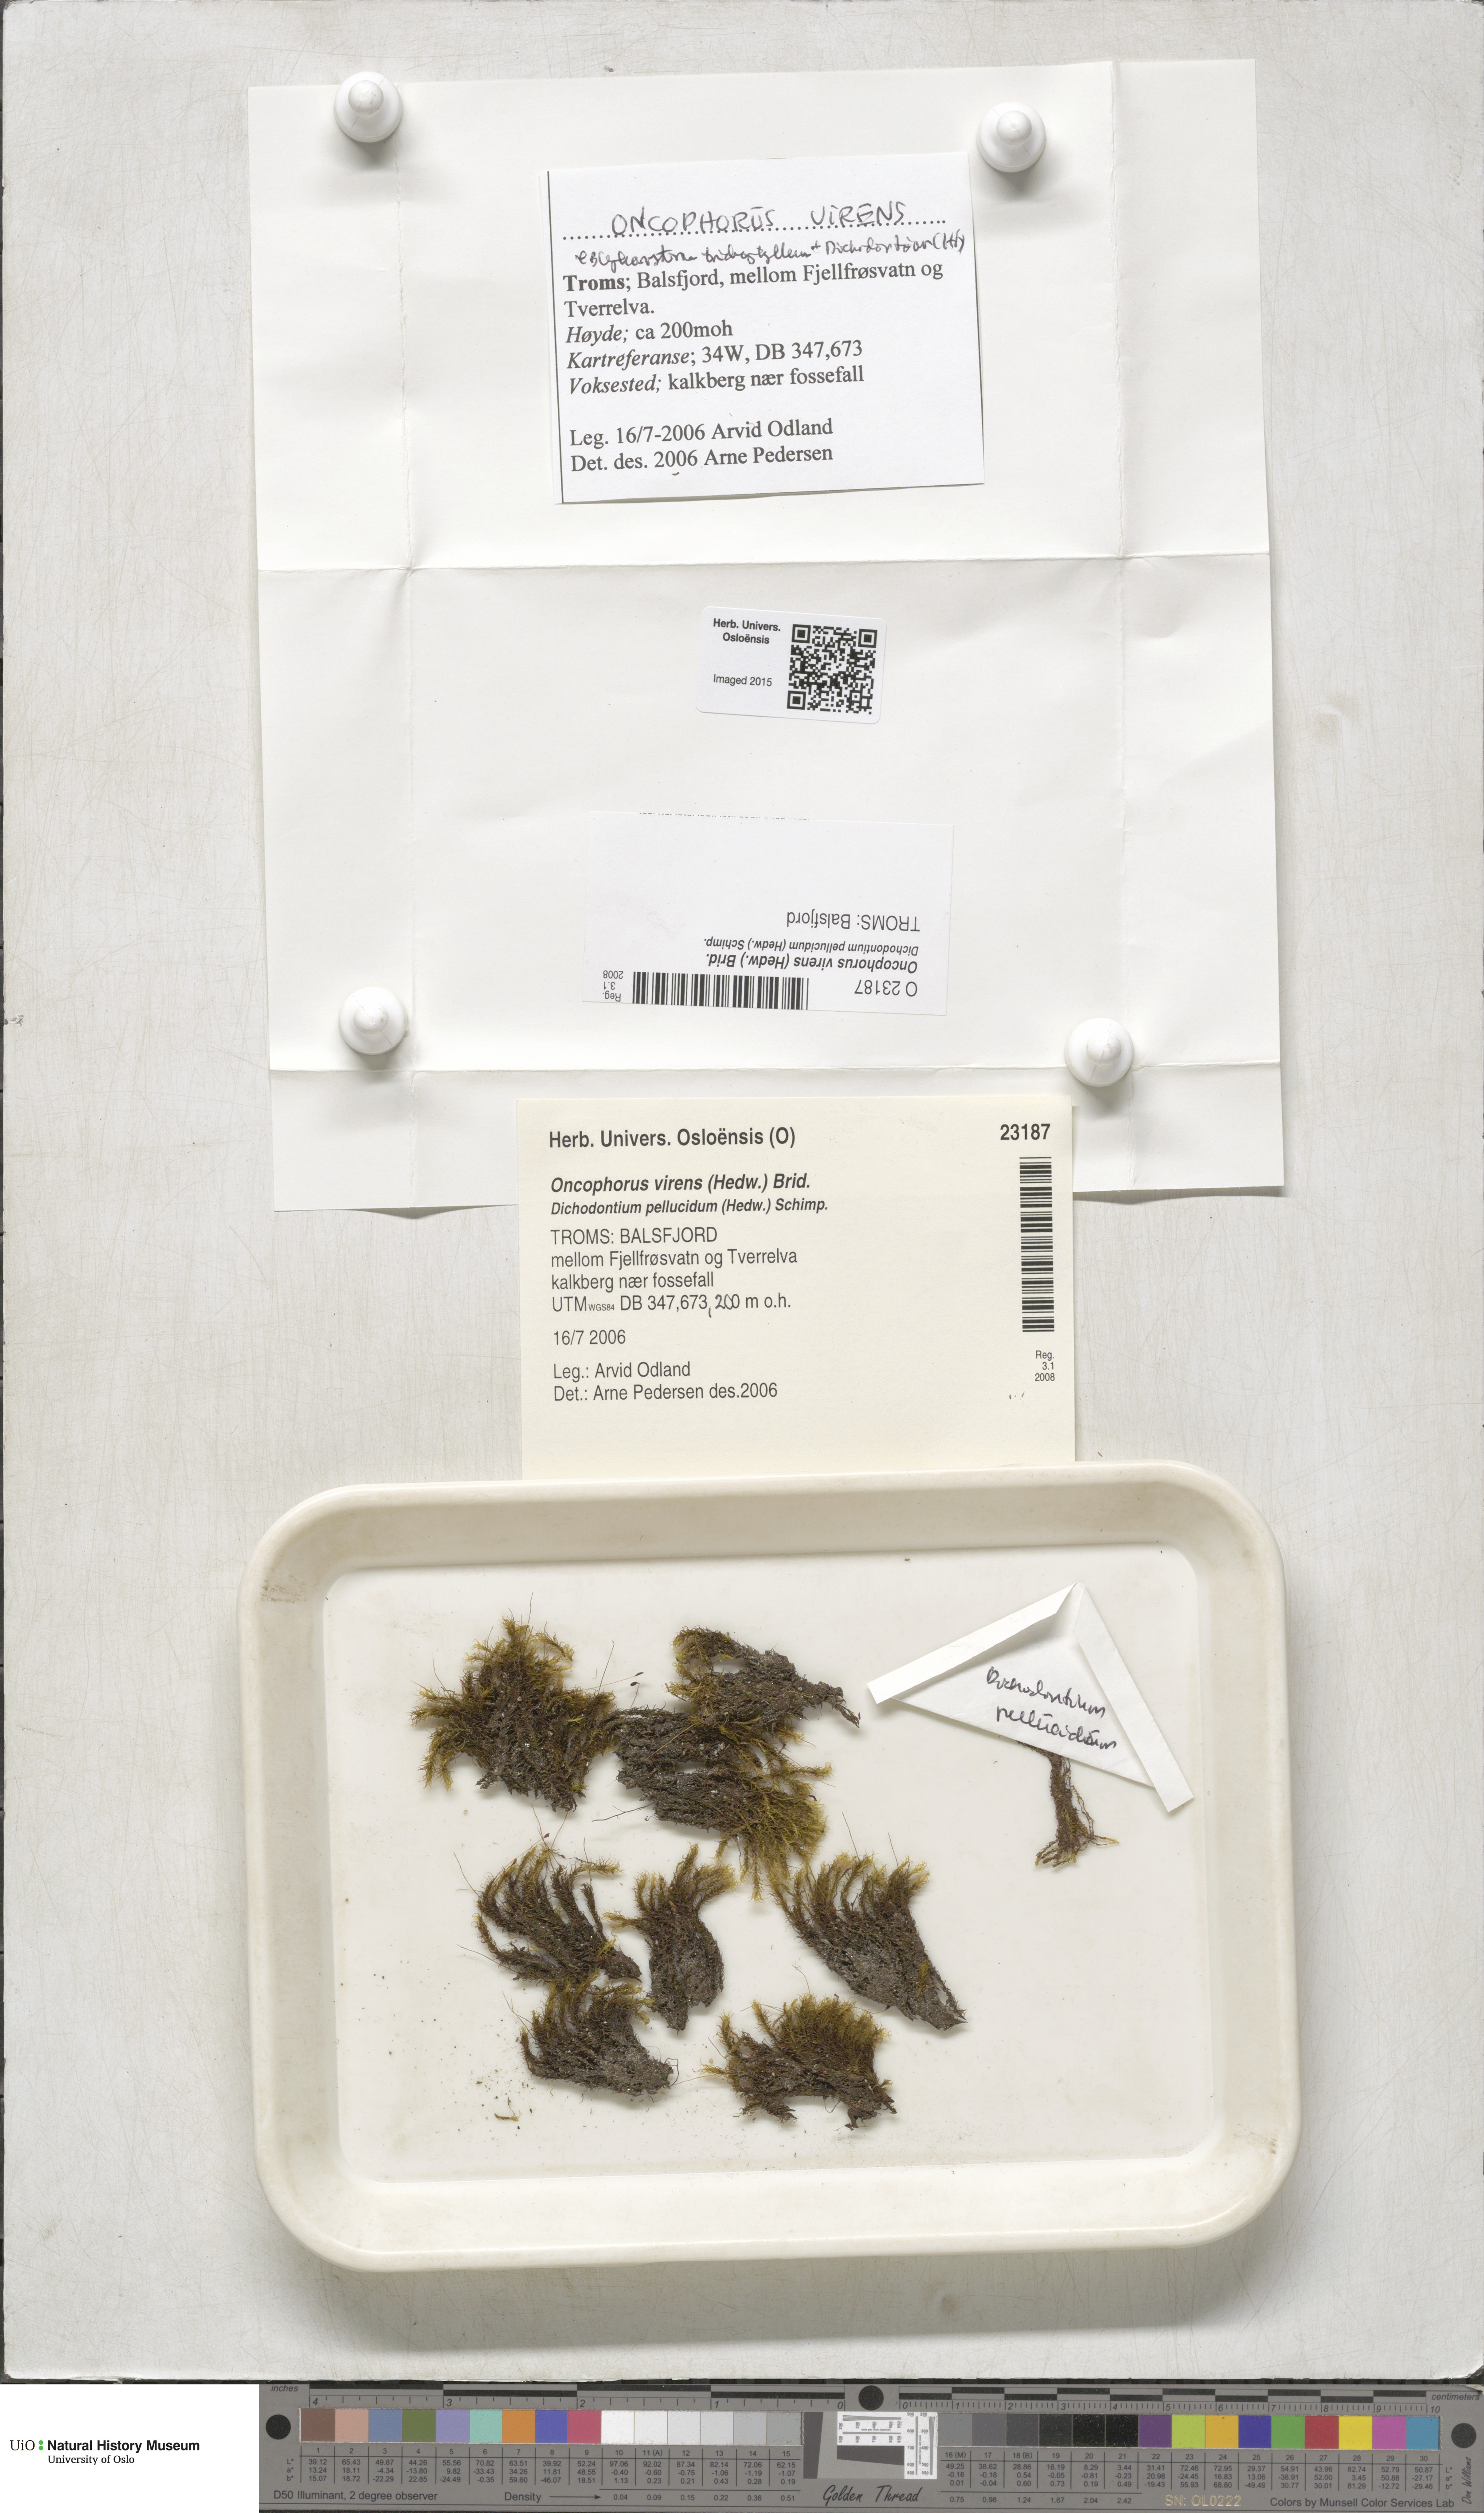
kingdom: Plantae
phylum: Bryophyta
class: Bryopsida
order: Dicranales
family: Rhabdoweisiaceae
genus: Oncophorus
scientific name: Oncophorus virens
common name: Green spur moss
